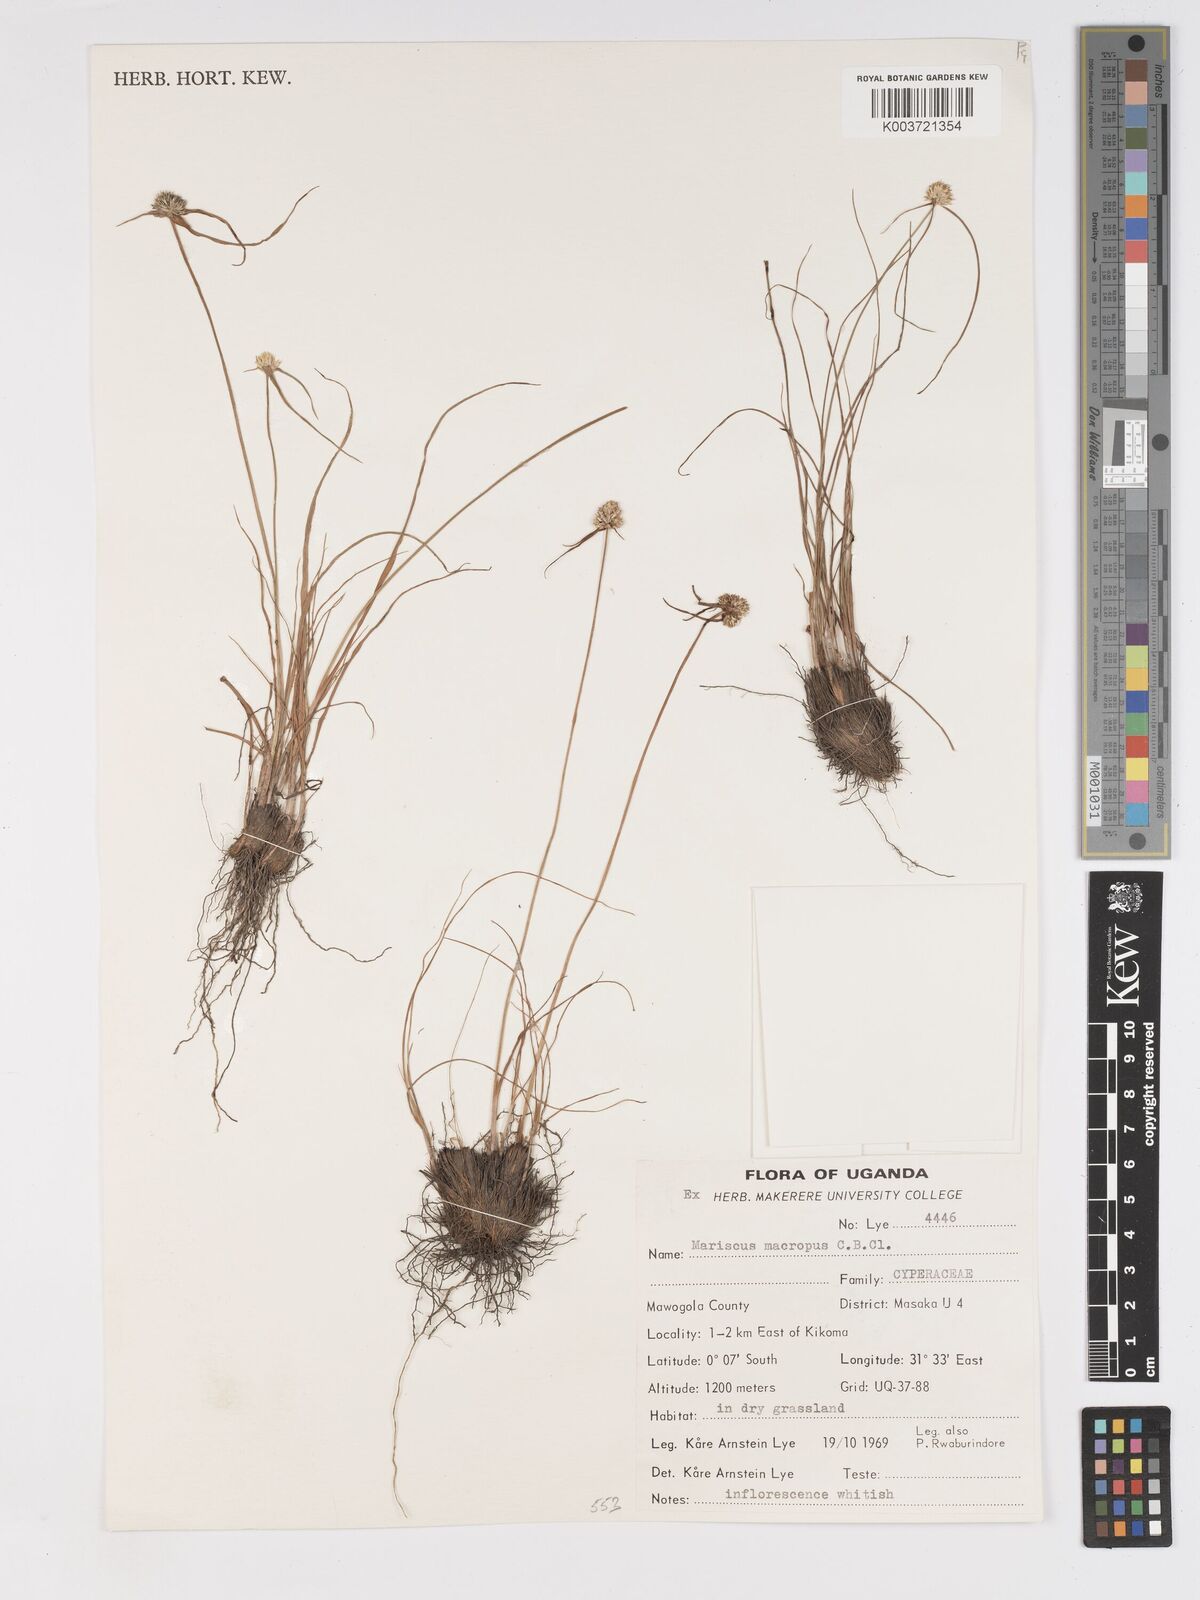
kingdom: Plantae
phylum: Tracheophyta
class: Liliopsida
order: Poales
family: Cyperaceae
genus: Cyperus
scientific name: Cyperus mollipes
